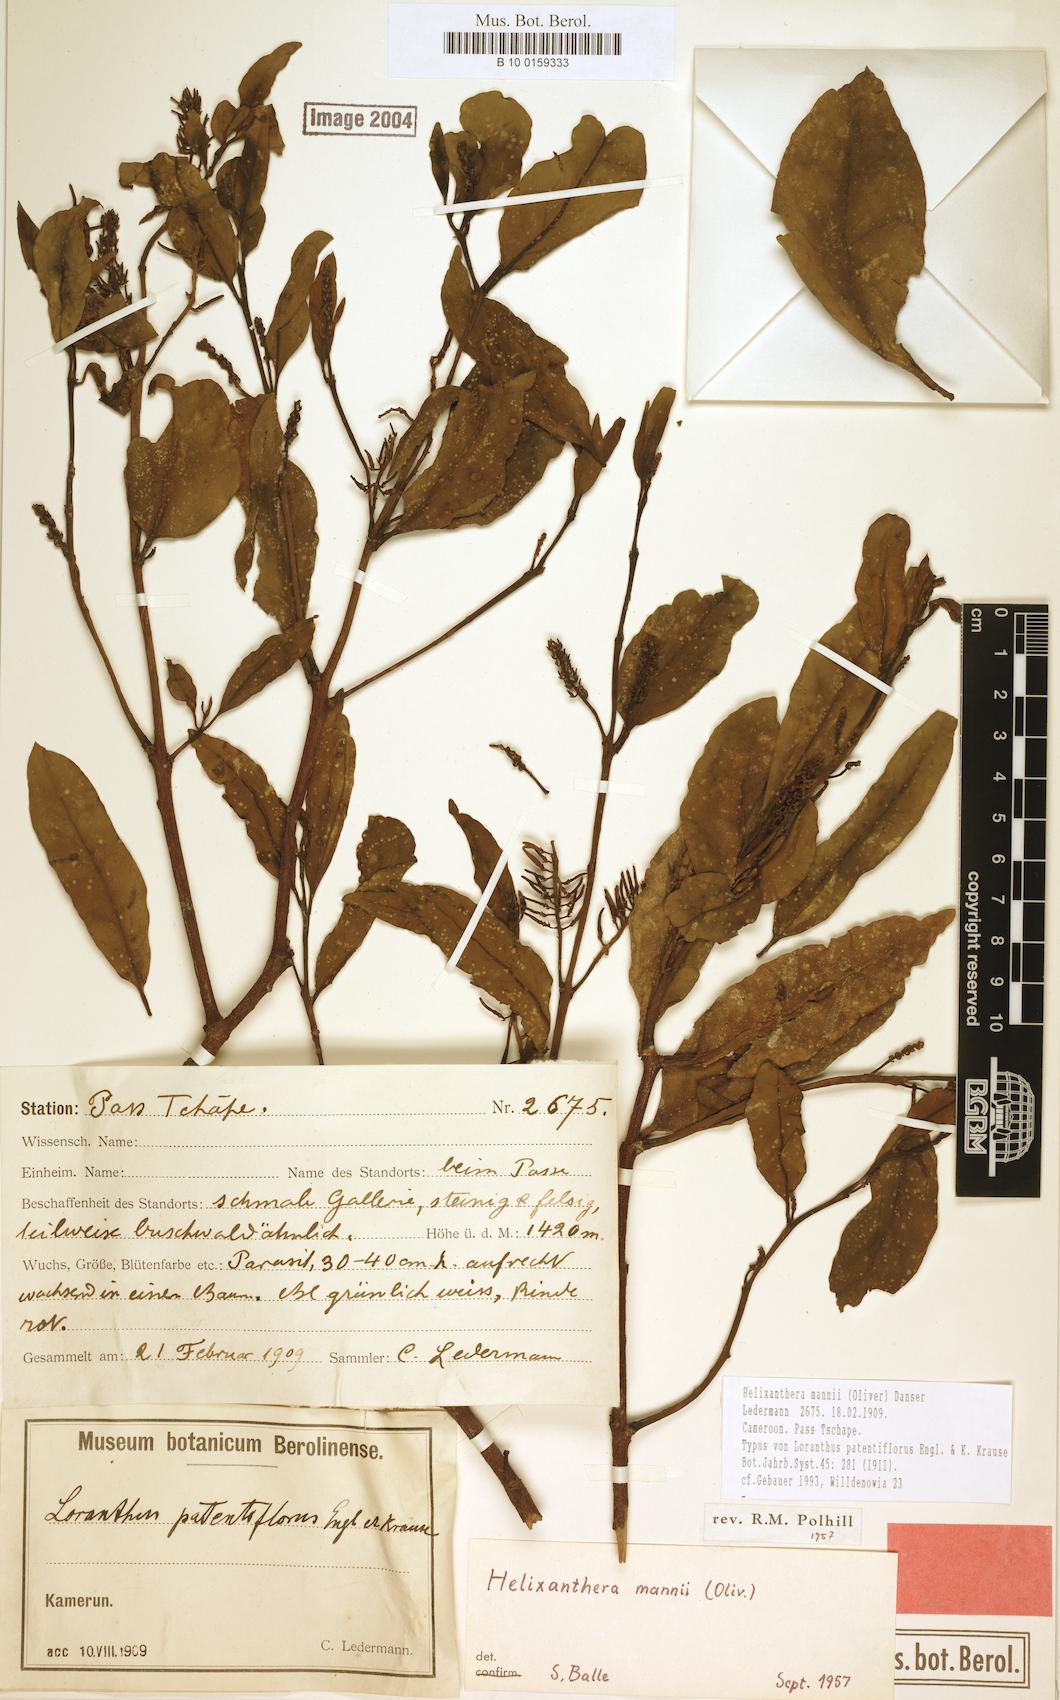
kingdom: Plantae
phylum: Tracheophyta
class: Magnoliopsida
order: Santalales
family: Loranthaceae
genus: Helixanthera
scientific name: Helixanthera mannii
